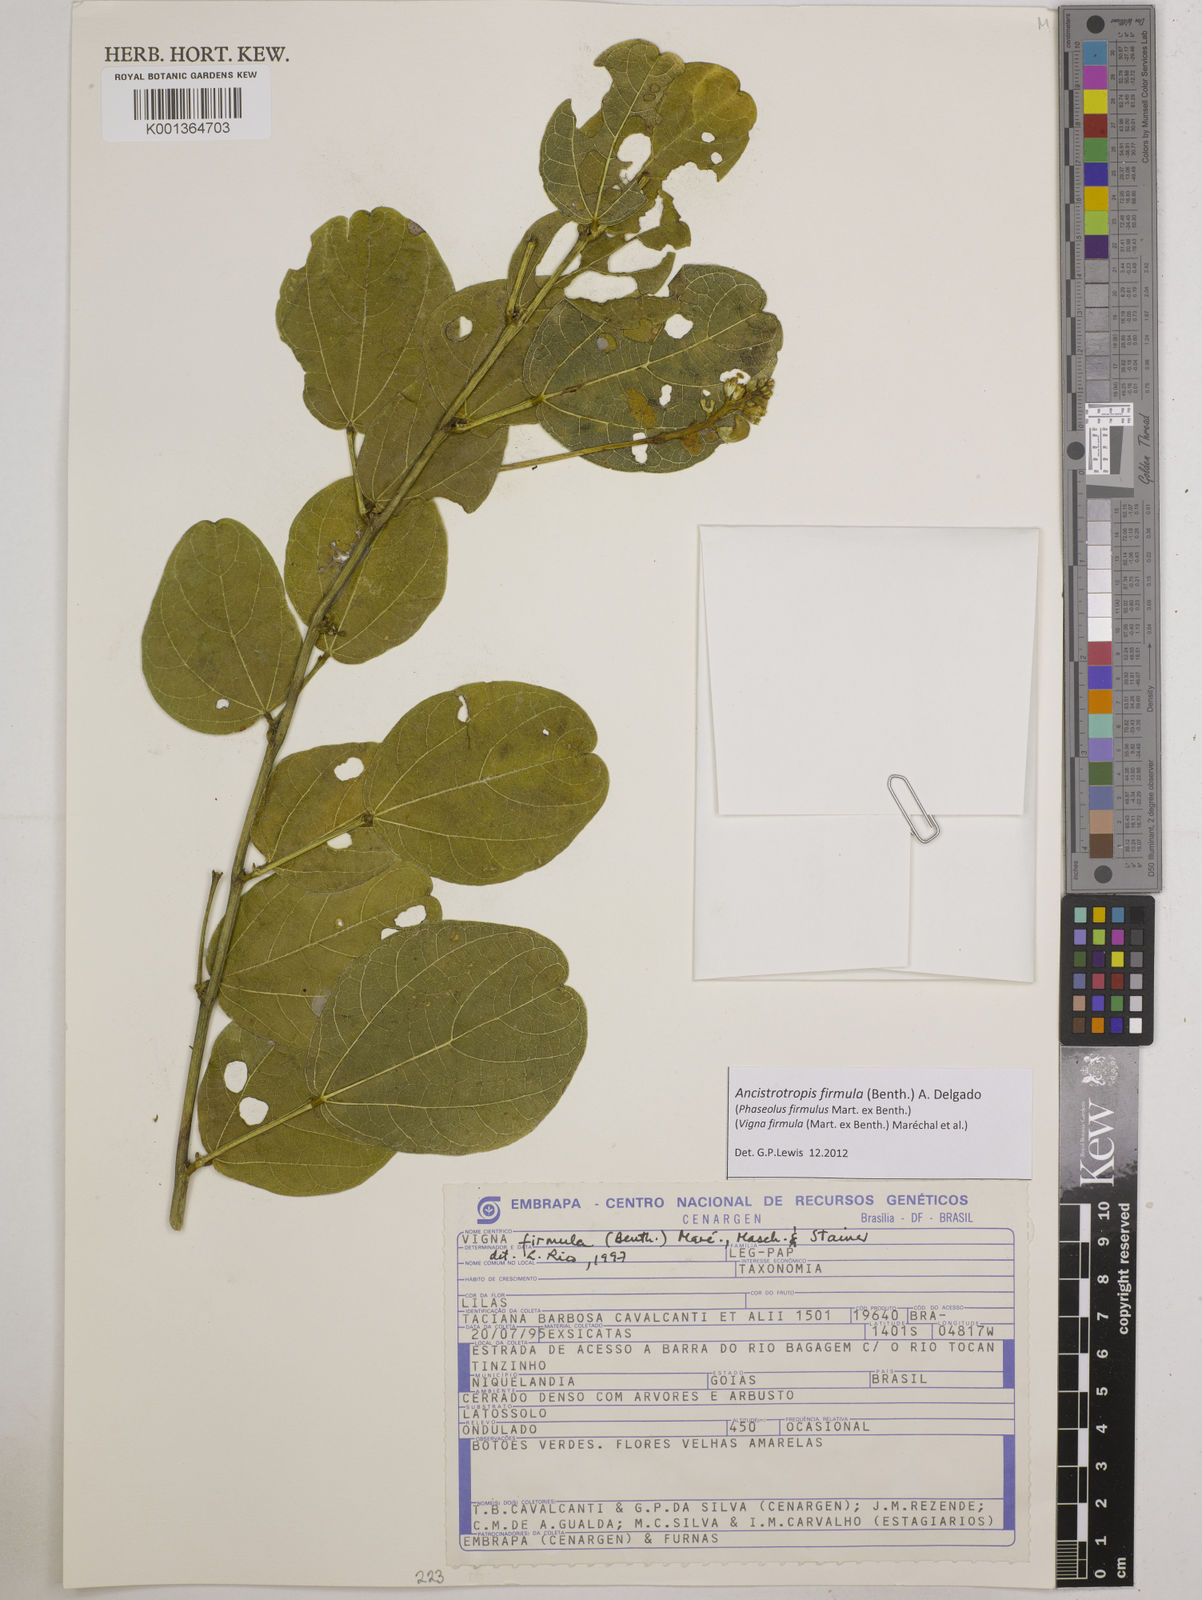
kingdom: Plantae
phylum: Tracheophyta
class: Magnoliopsida
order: Fabales
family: Fabaceae
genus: Ancistrotropis
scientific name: Ancistrotropis firmula
